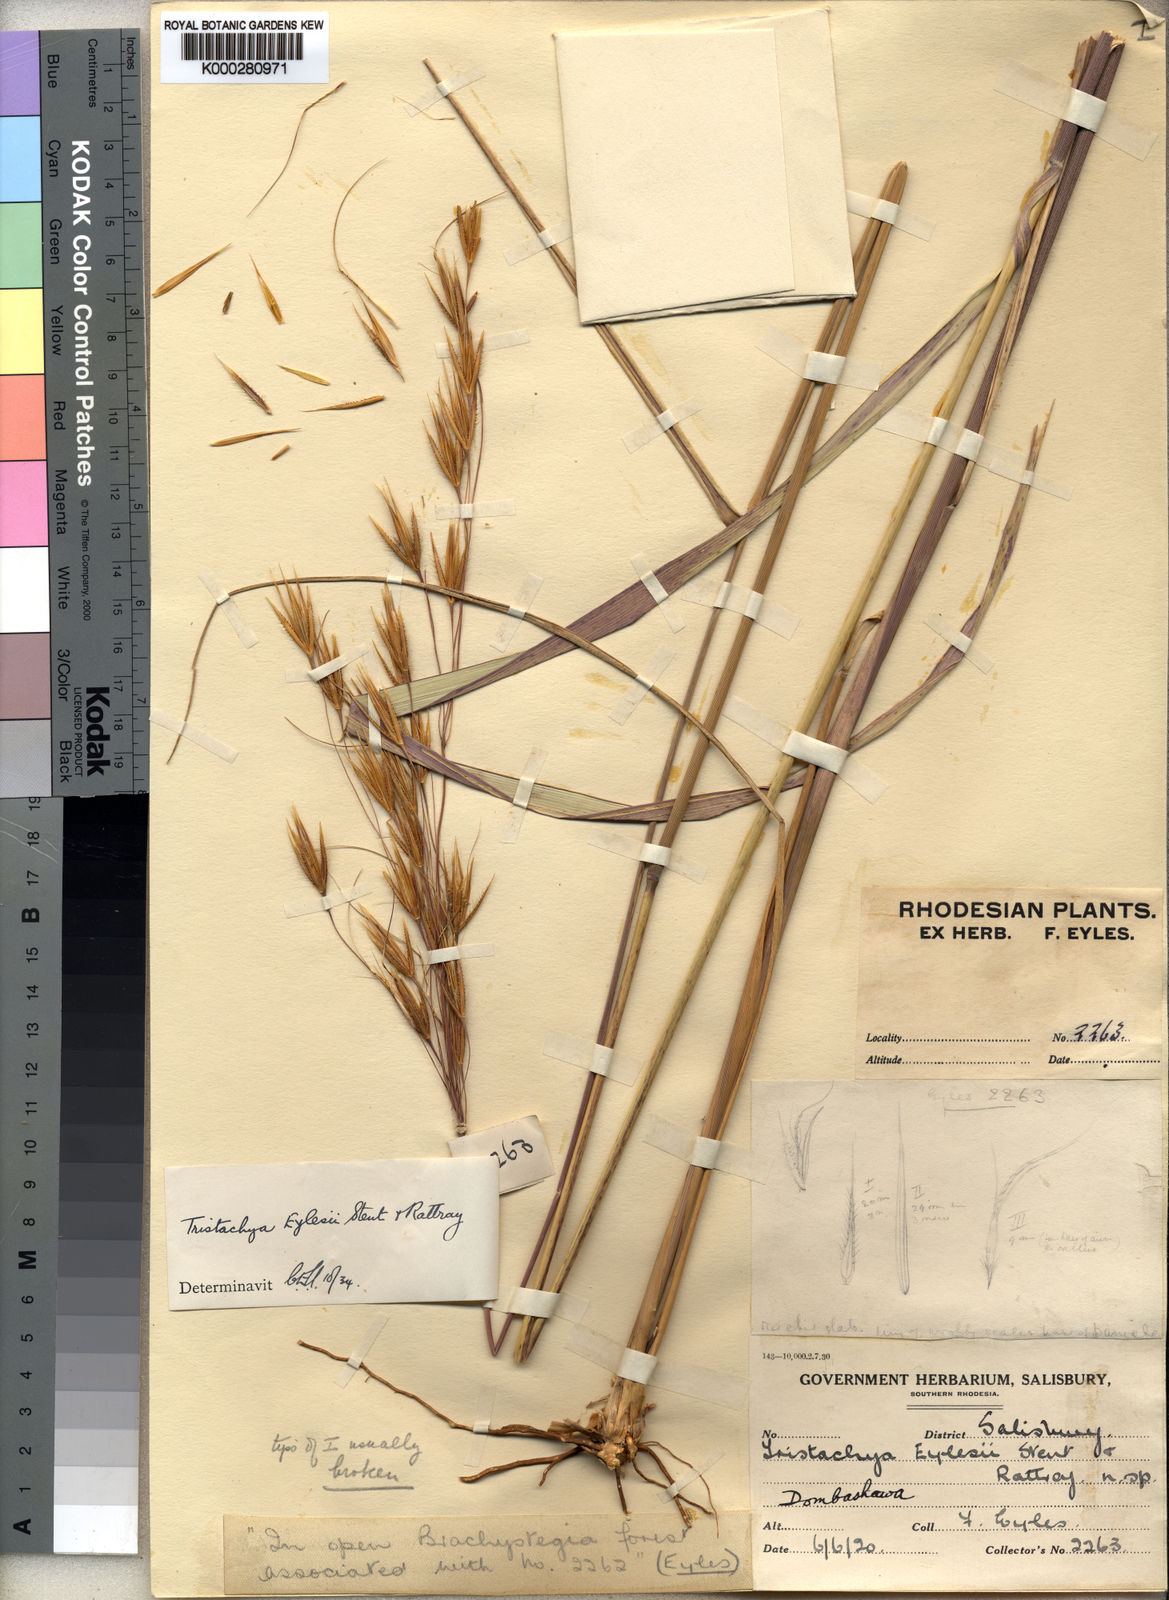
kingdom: Plantae
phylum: Tracheophyta
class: Liliopsida
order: Poales
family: Poaceae
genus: Tristachya
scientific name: Tristachya nodiglumis
